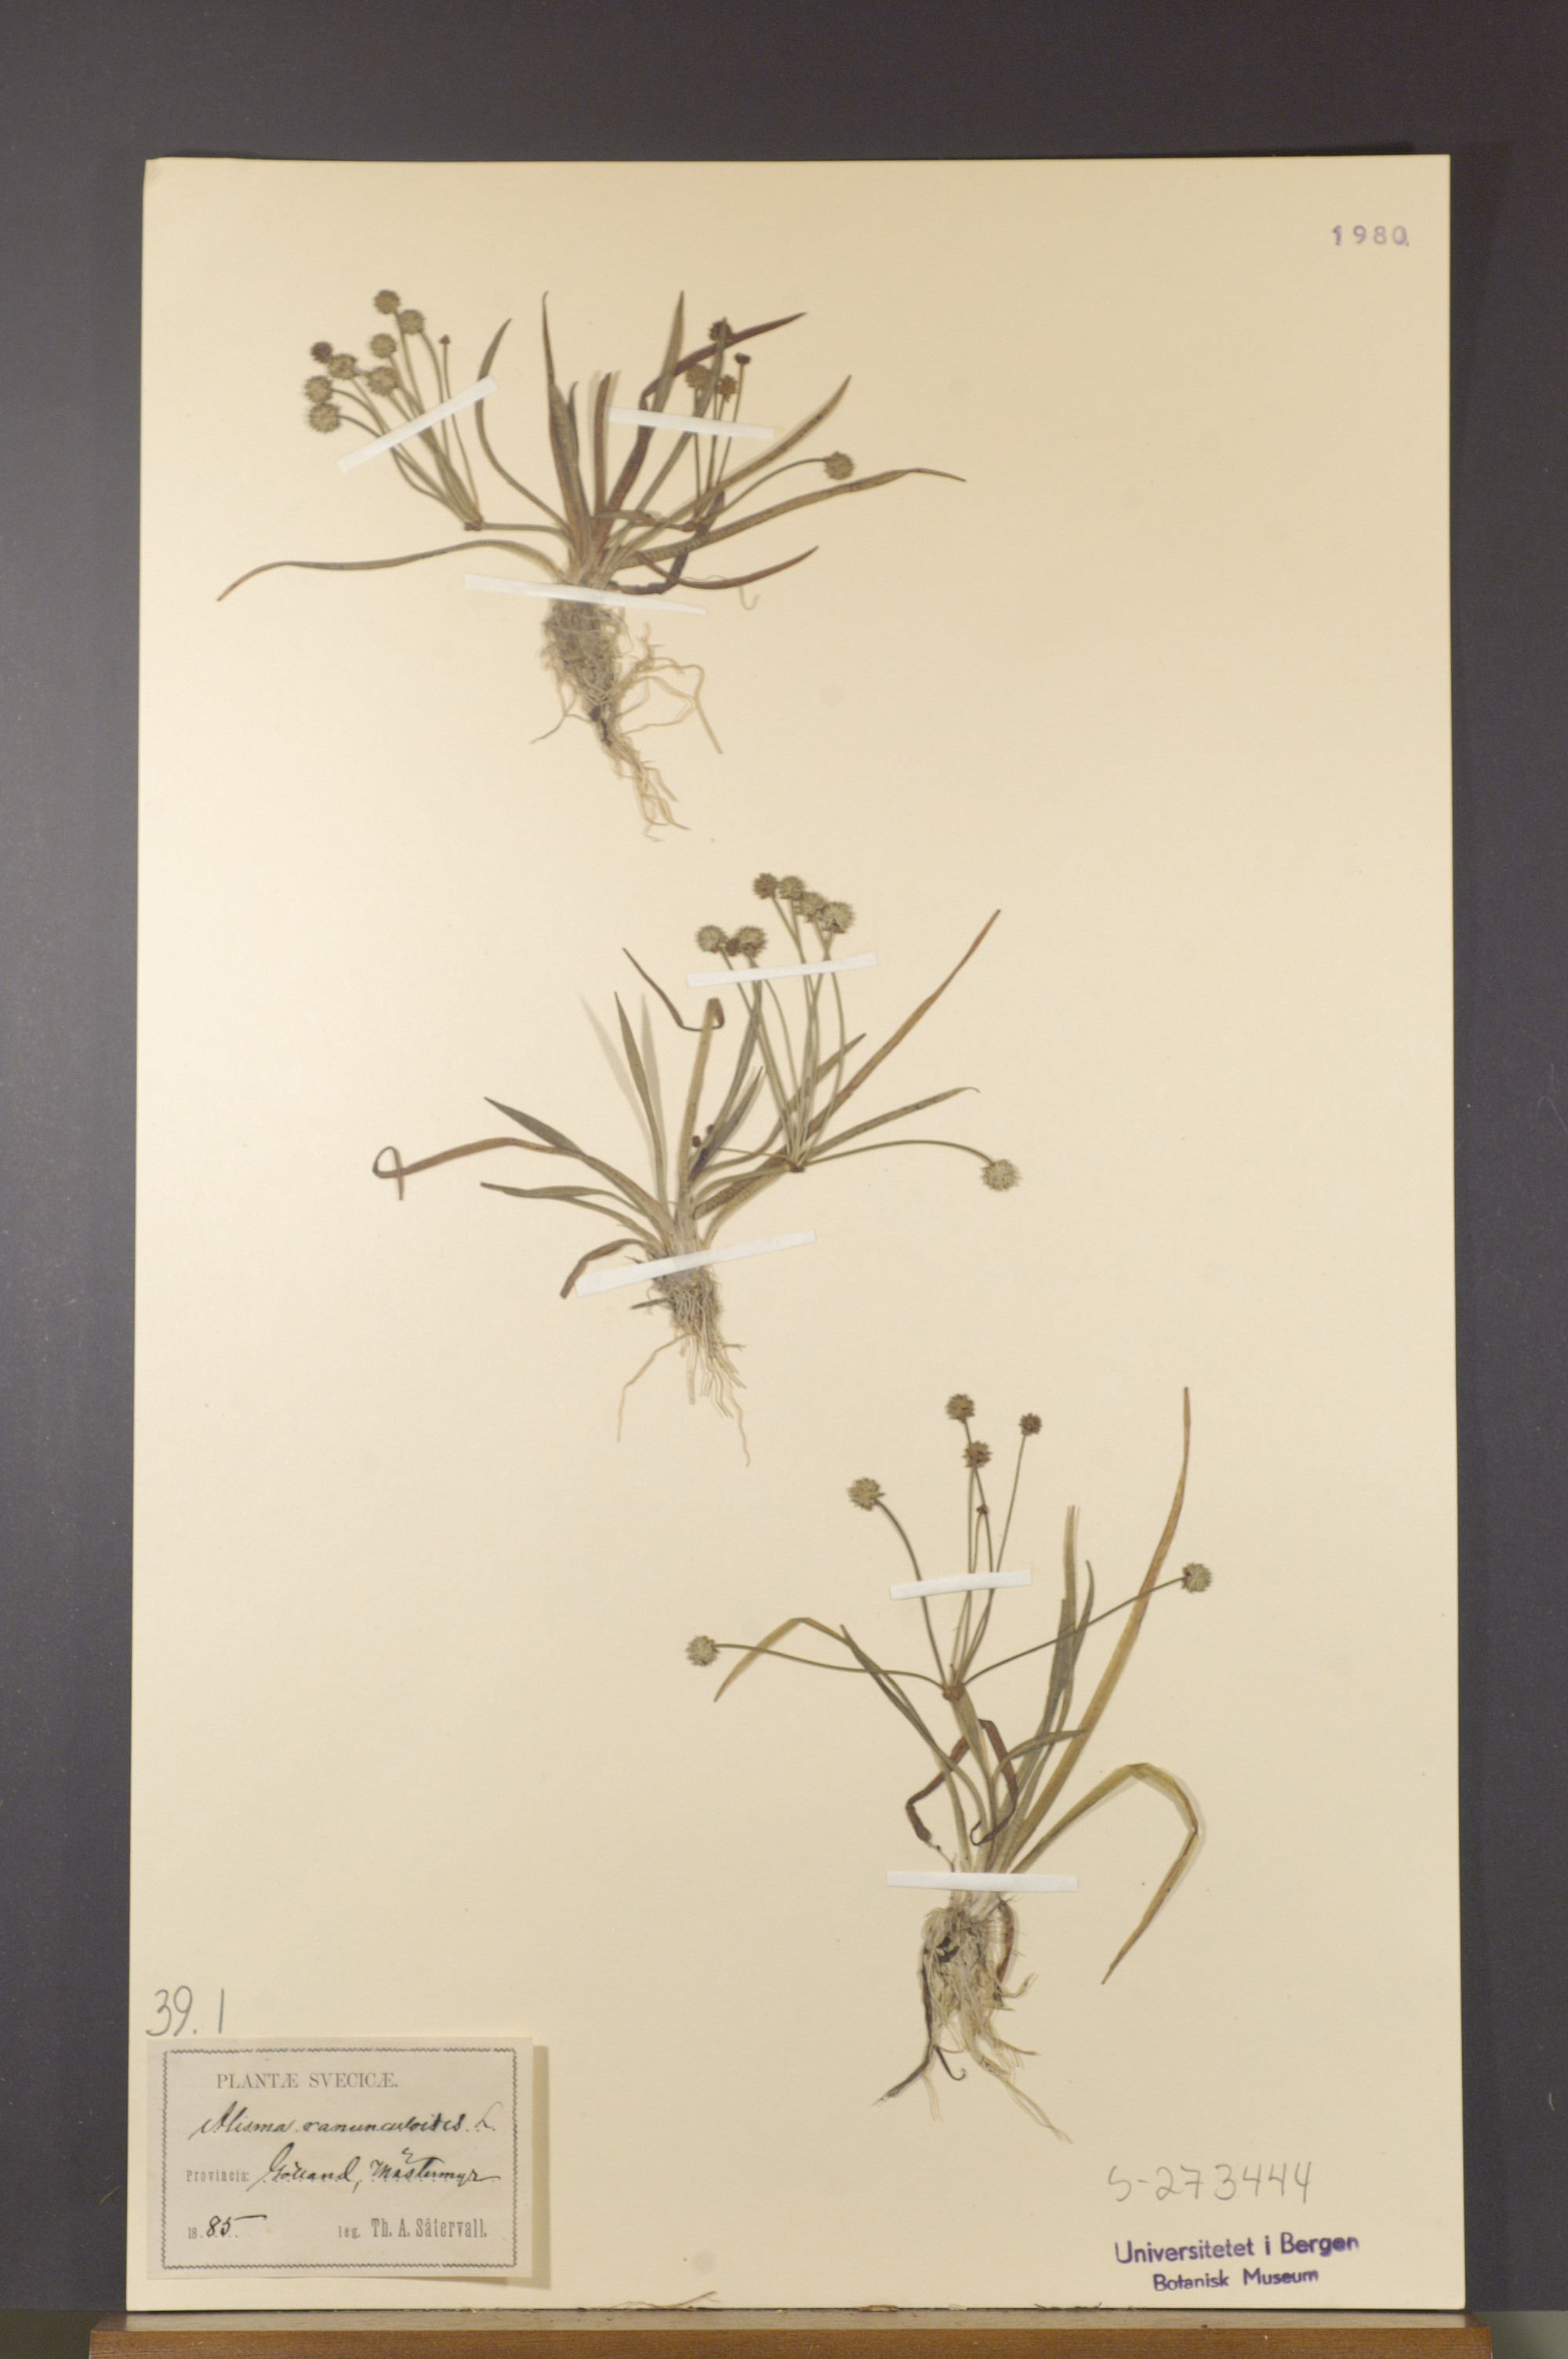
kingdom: Plantae
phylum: Tracheophyta
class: Liliopsida
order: Alismatales
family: Alismataceae
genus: Baldellia
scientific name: Baldellia ranunculoides
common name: Lesser water-plantain
